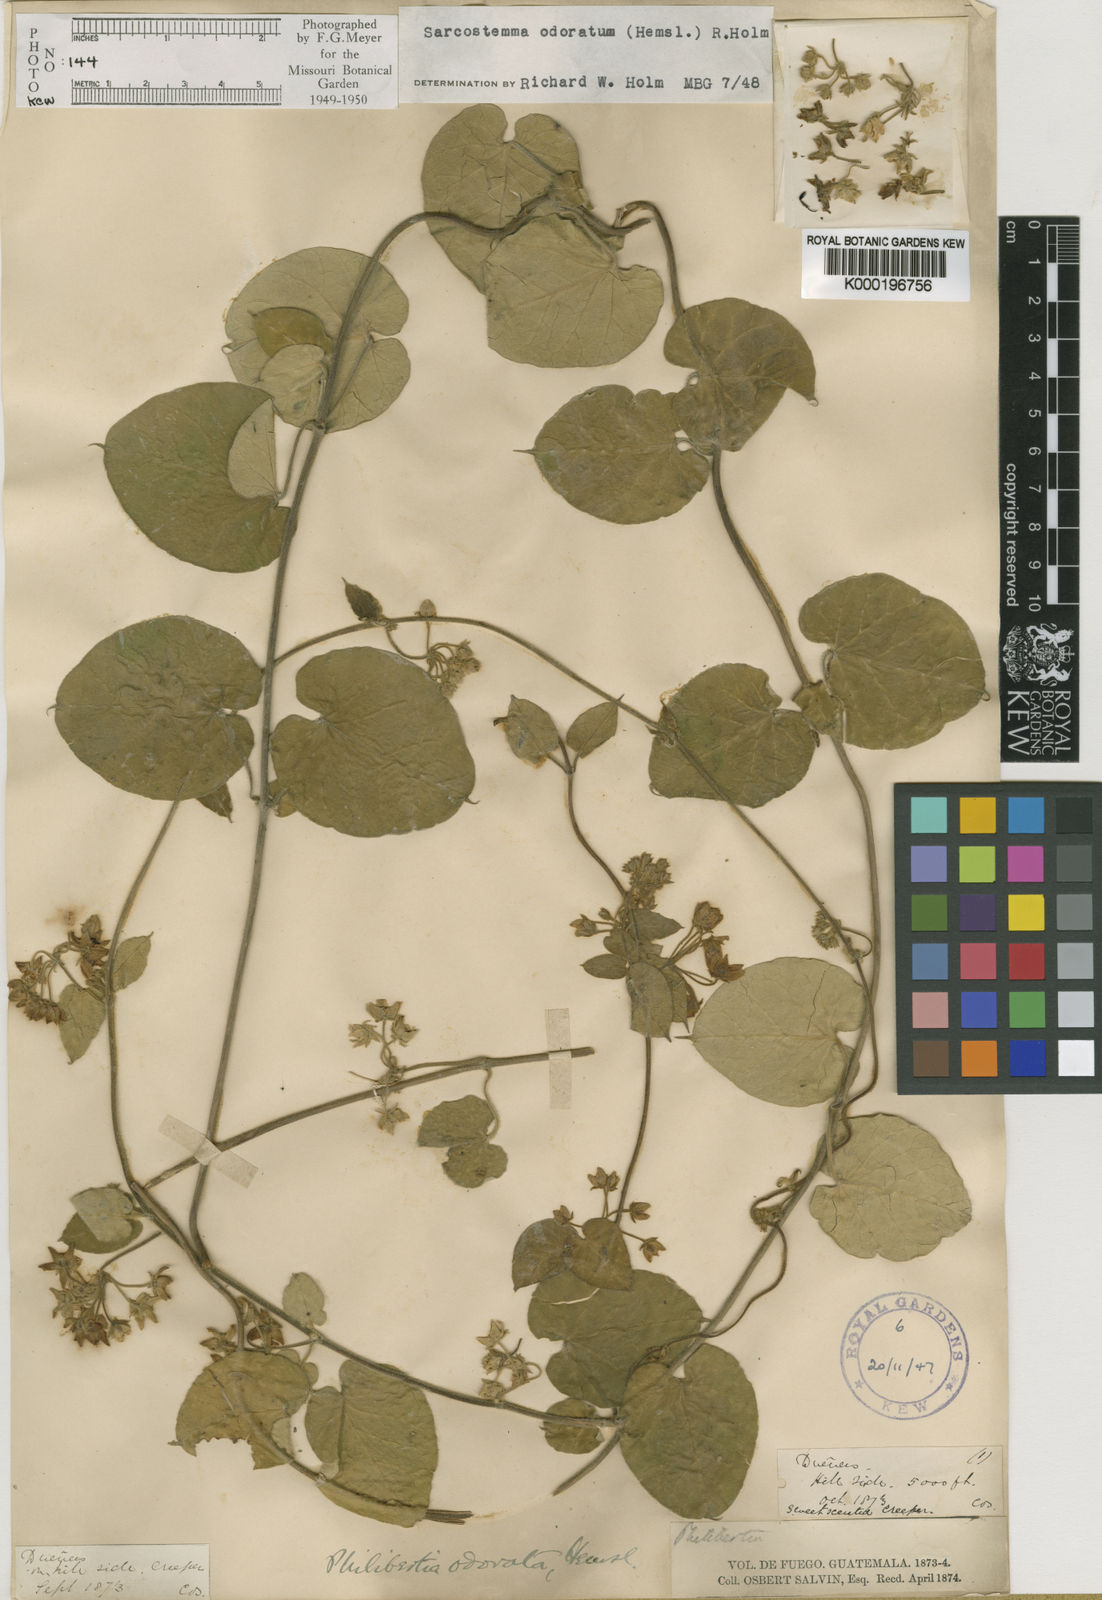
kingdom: Plantae
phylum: Tracheophyta
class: Magnoliopsida
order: Gentianales
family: Apocynaceae
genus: Funastrum
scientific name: Funastrum odoratum
